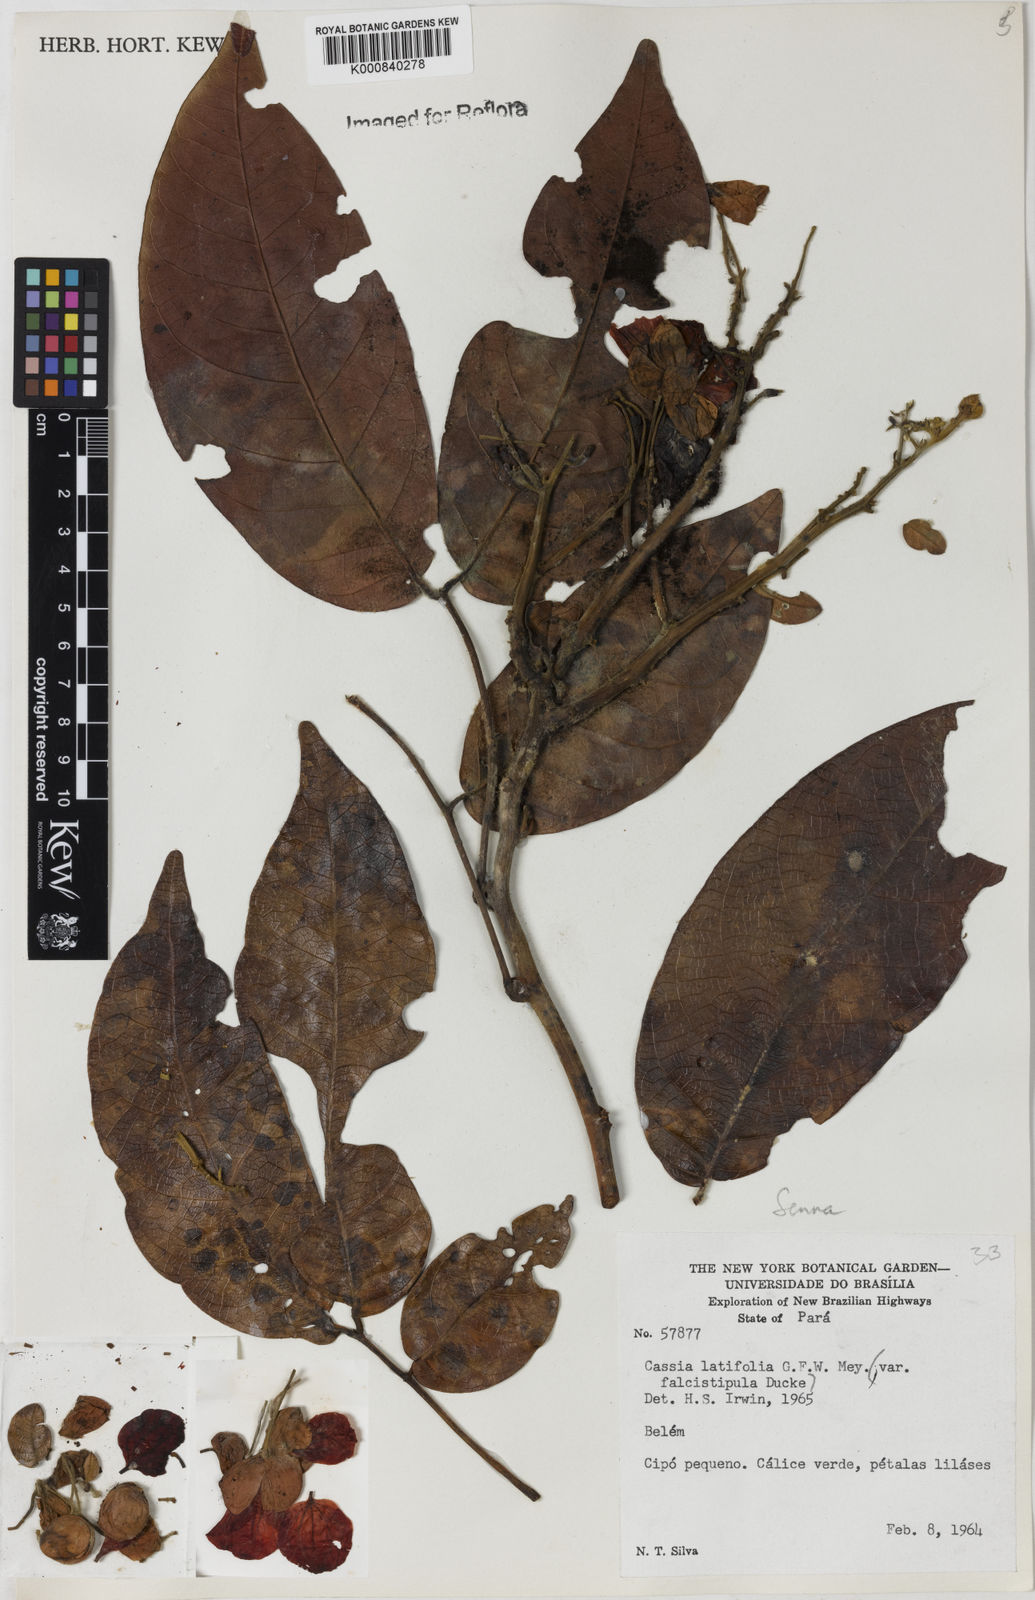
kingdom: Plantae
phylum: Tracheophyta
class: Magnoliopsida
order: Fabales
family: Fabaceae
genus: Senna
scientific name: Senna latifolia
